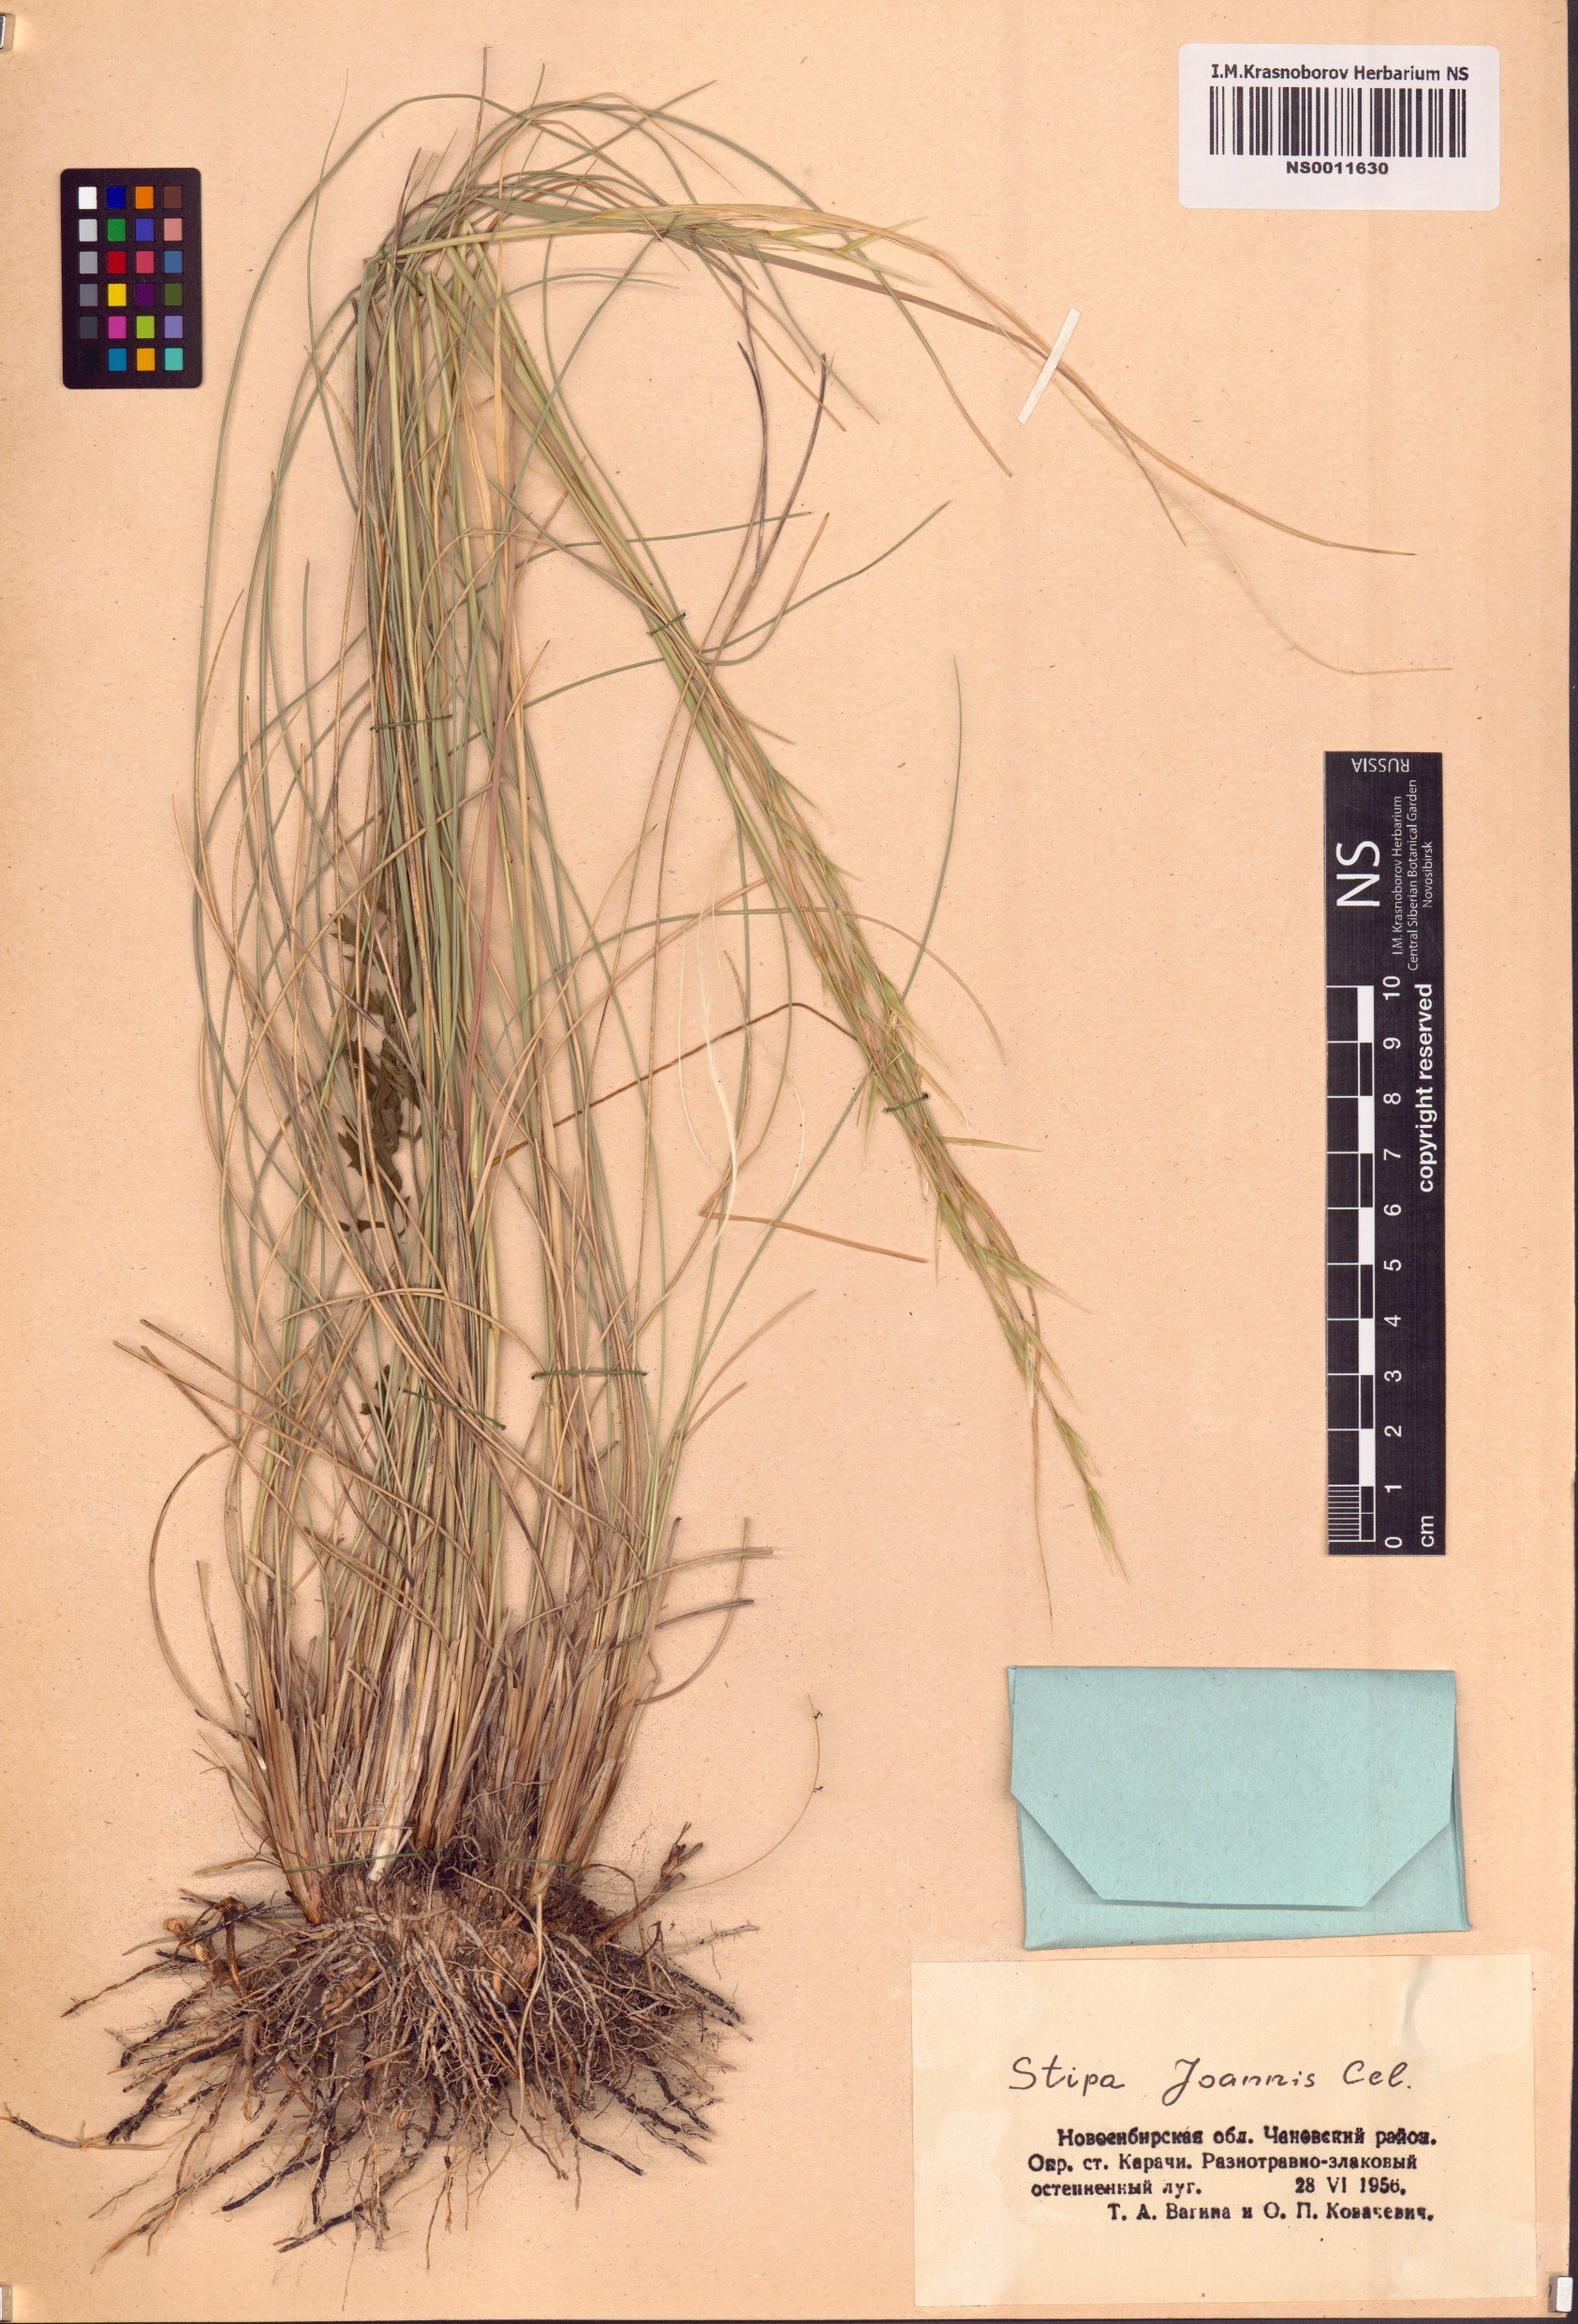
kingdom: Plantae
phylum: Tracheophyta
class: Liliopsida
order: Poales
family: Poaceae
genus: Stipa
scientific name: Stipa pennata
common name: European feather grass
